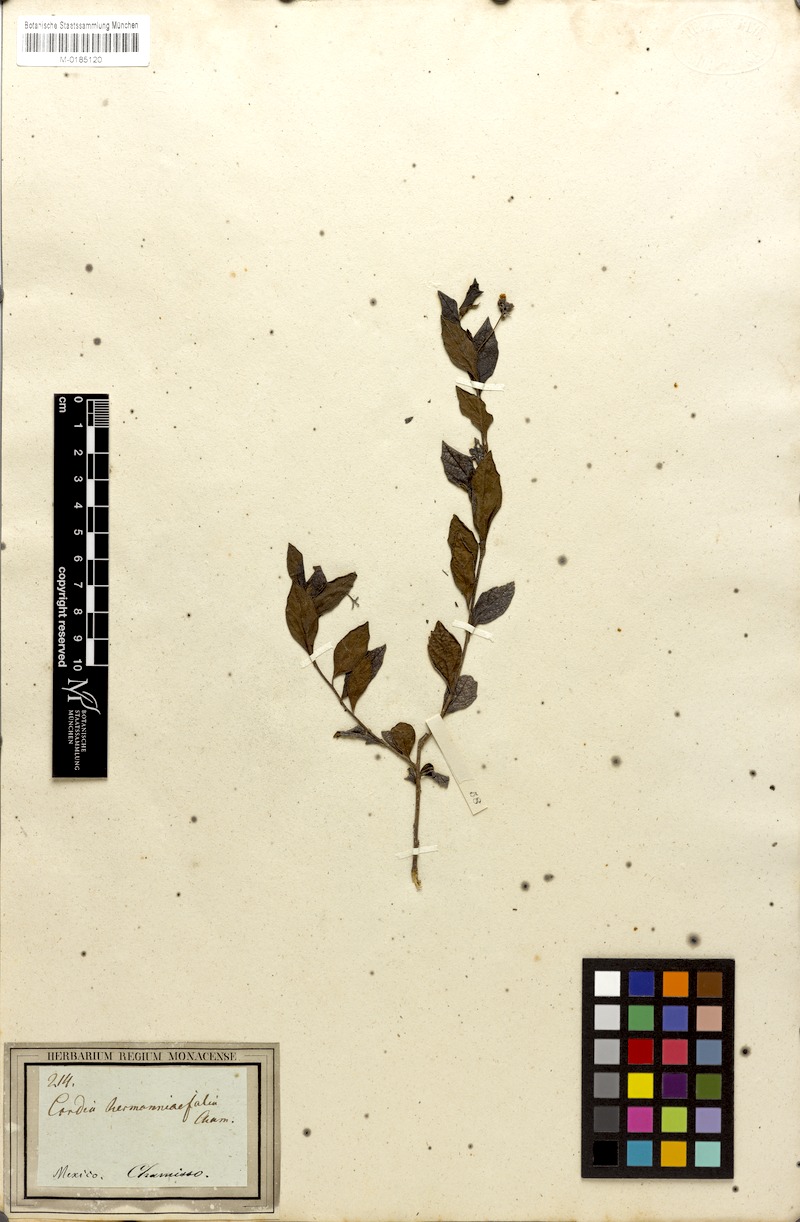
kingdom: Plantae
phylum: Tracheophyta
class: Magnoliopsida
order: Boraginales
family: Cordiaceae
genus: Varronia
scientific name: Varronia polycephala
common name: Black-sage
